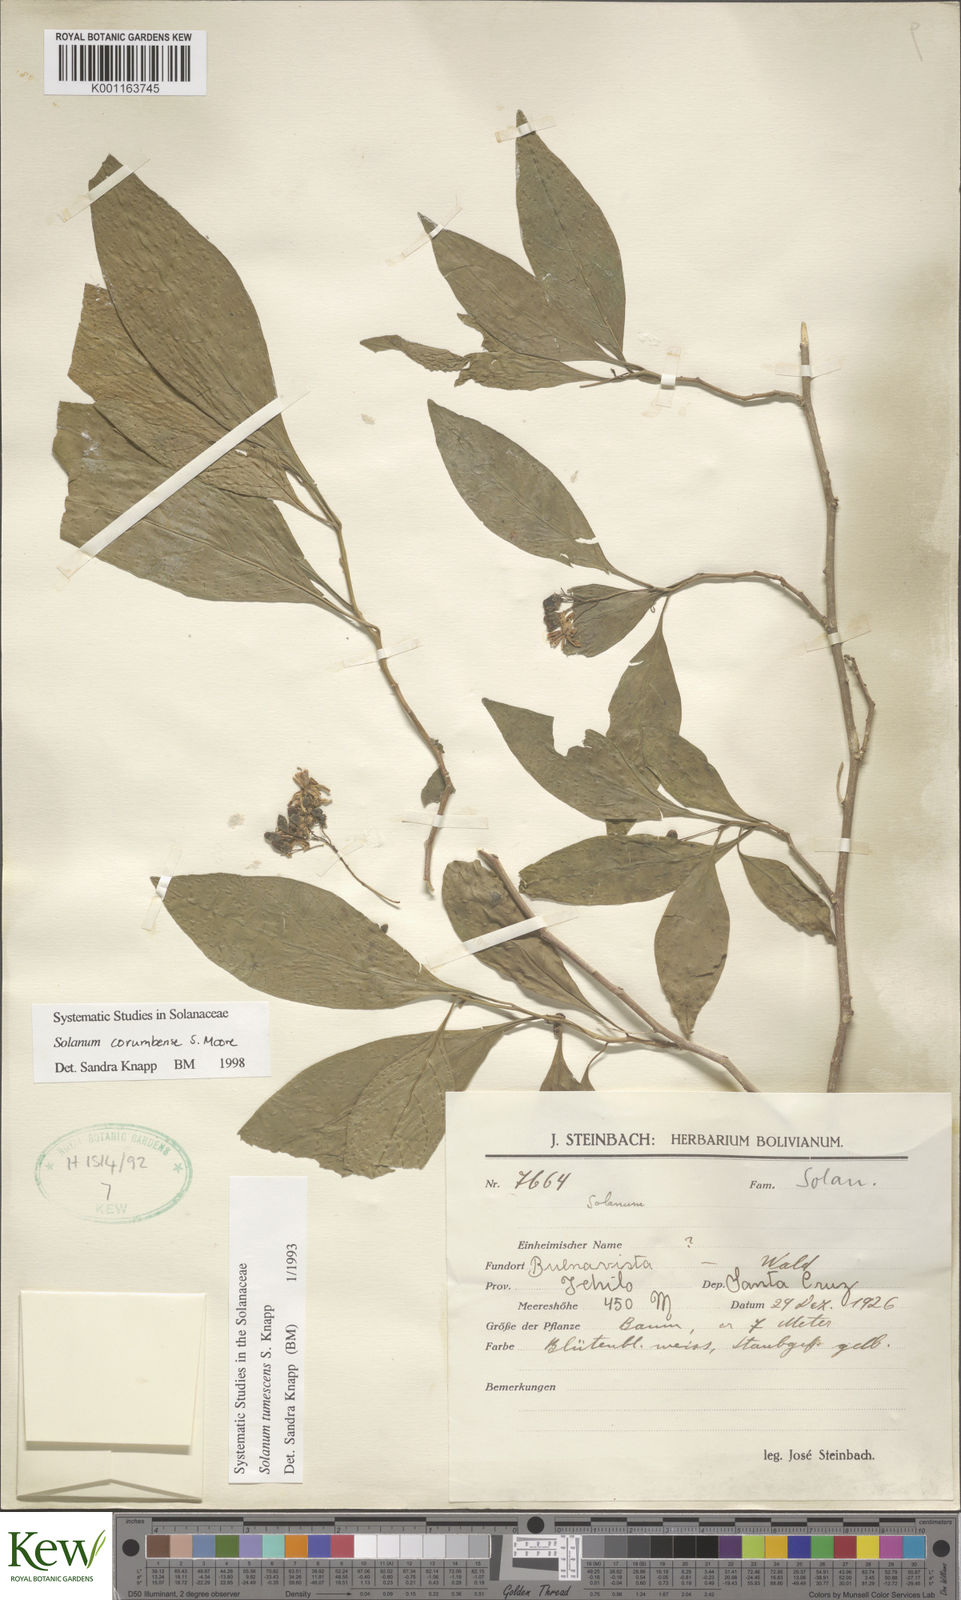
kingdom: Plantae
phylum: Tracheophyta
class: Magnoliopsida
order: Solanales
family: Solanaceae
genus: Solanum
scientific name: Solanum corumbense
